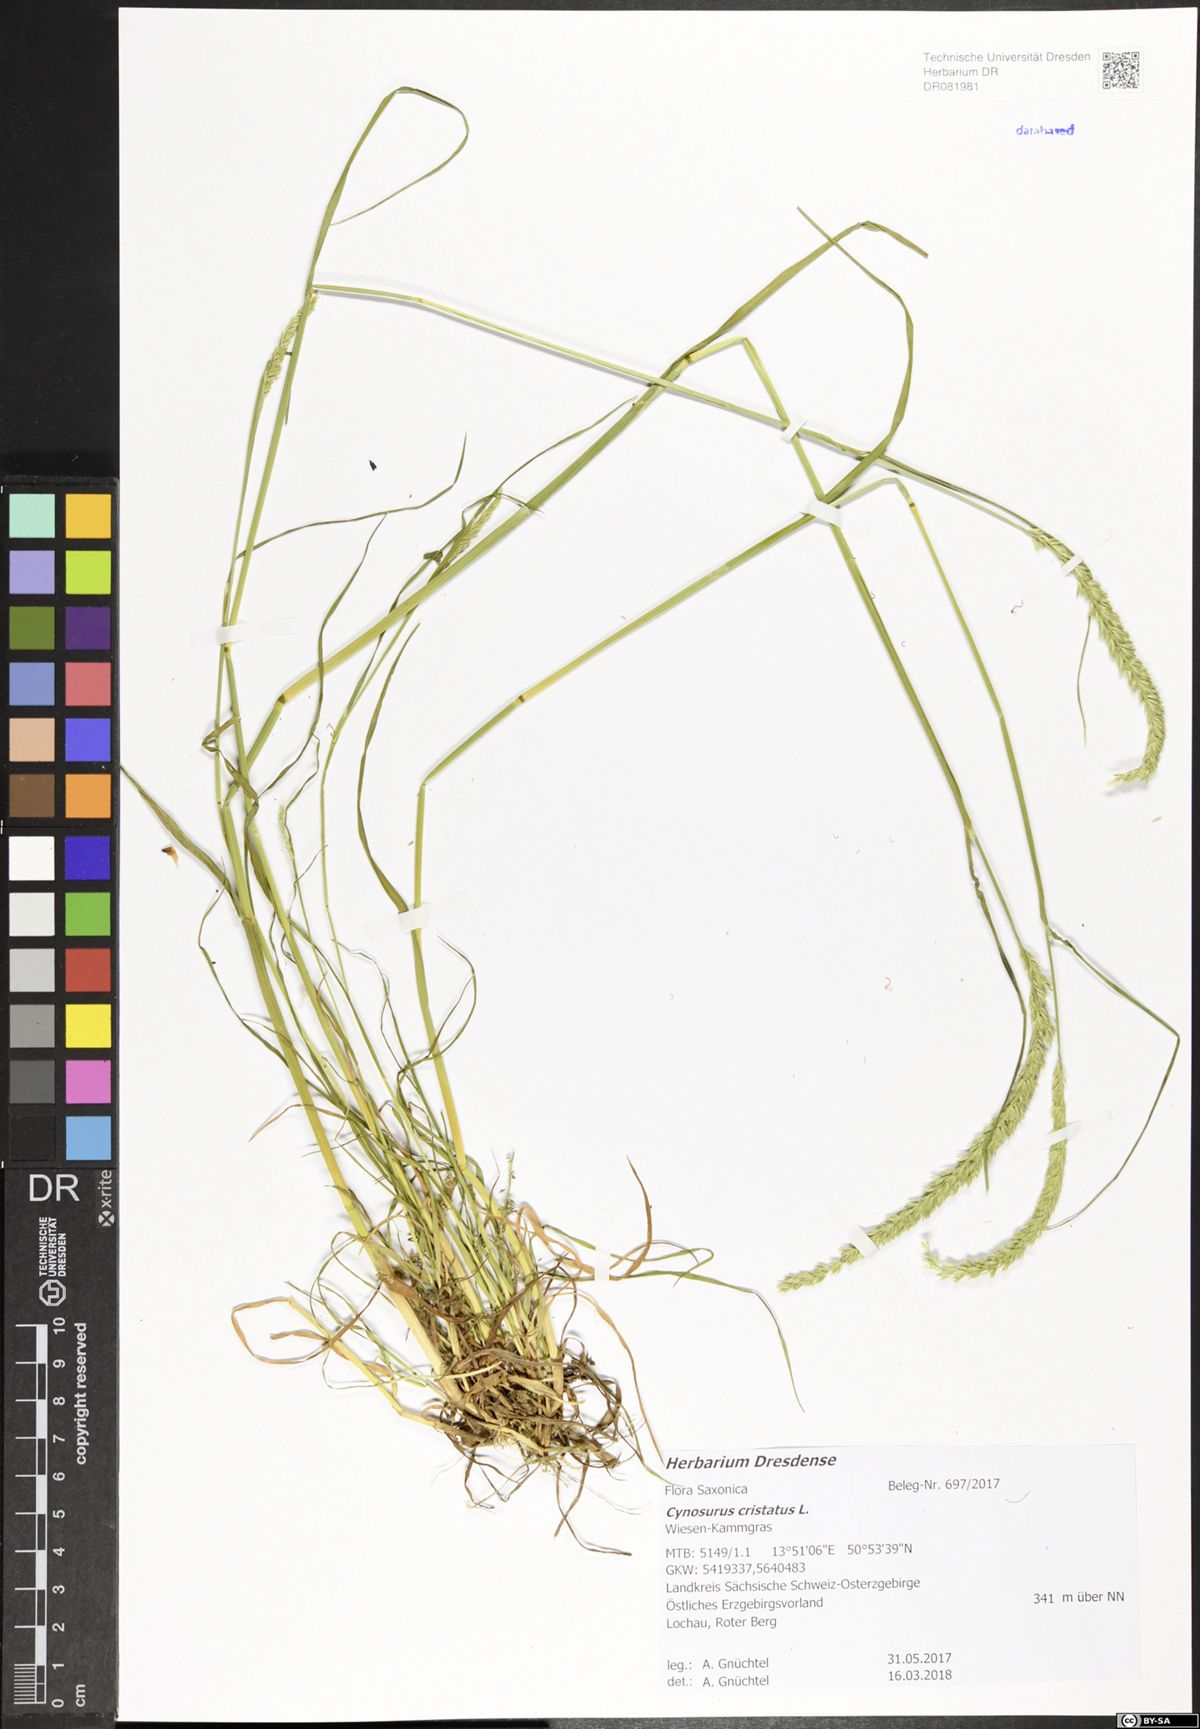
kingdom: Plantae
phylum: Tracheophyta
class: Liliopsida
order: Poales
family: Poaceae
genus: Cynosurus
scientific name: Cynosurus cristatus
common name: Crested dog's-tail
